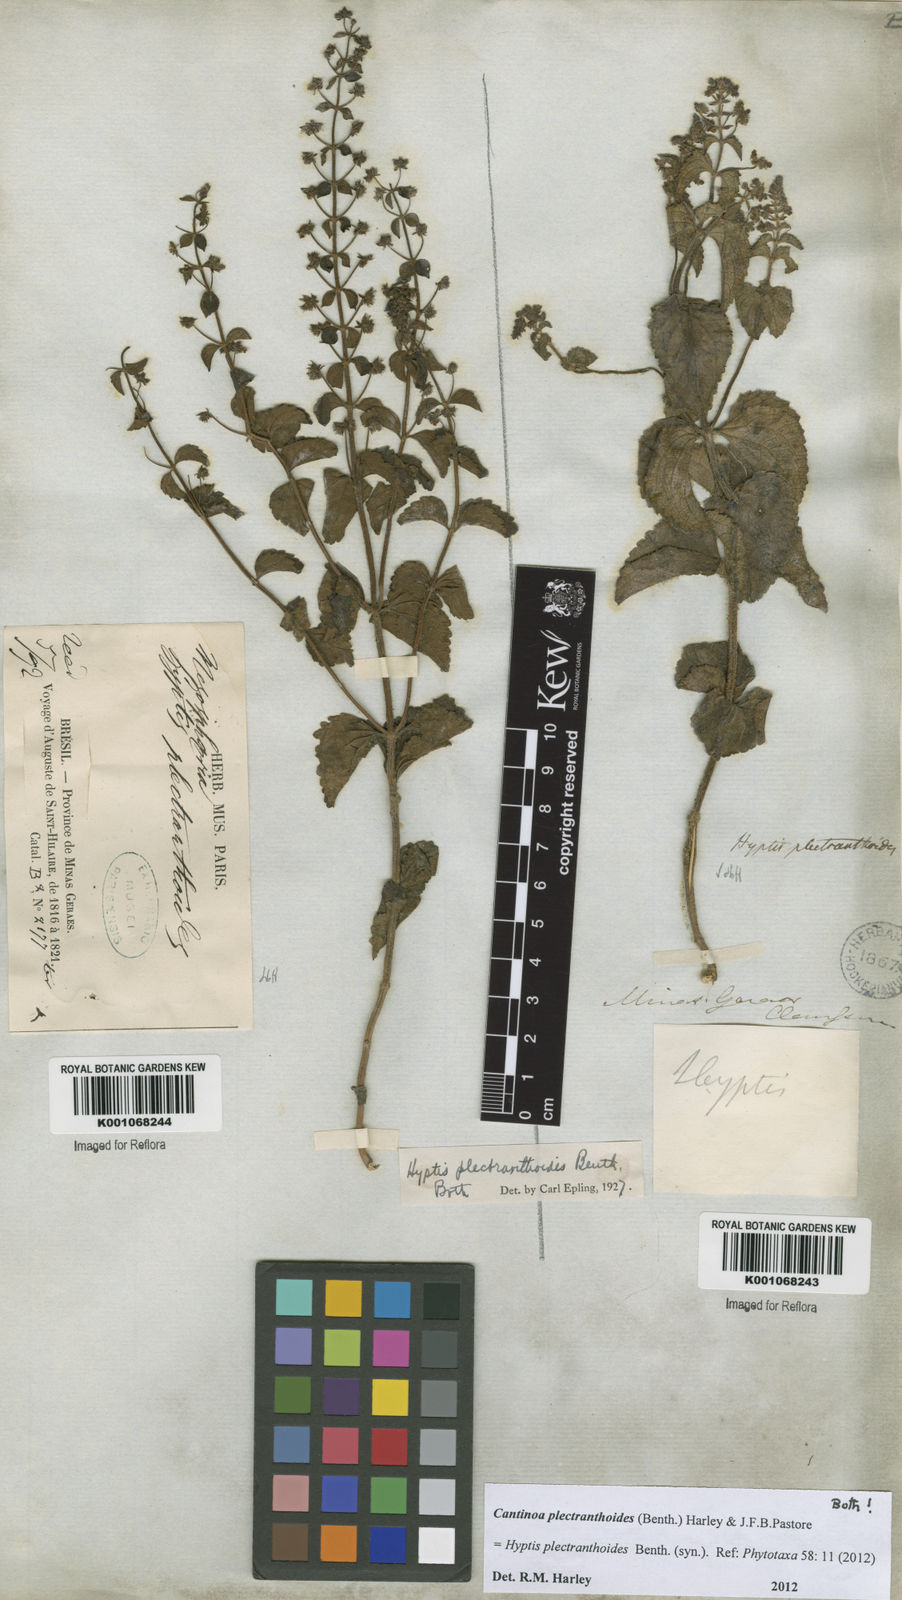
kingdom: Plantae
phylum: Tracheophyta
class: Magnoliopsida
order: Lamiales
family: Lamiaceae
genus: Cantinoa
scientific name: Cantinoa plectranthoides
